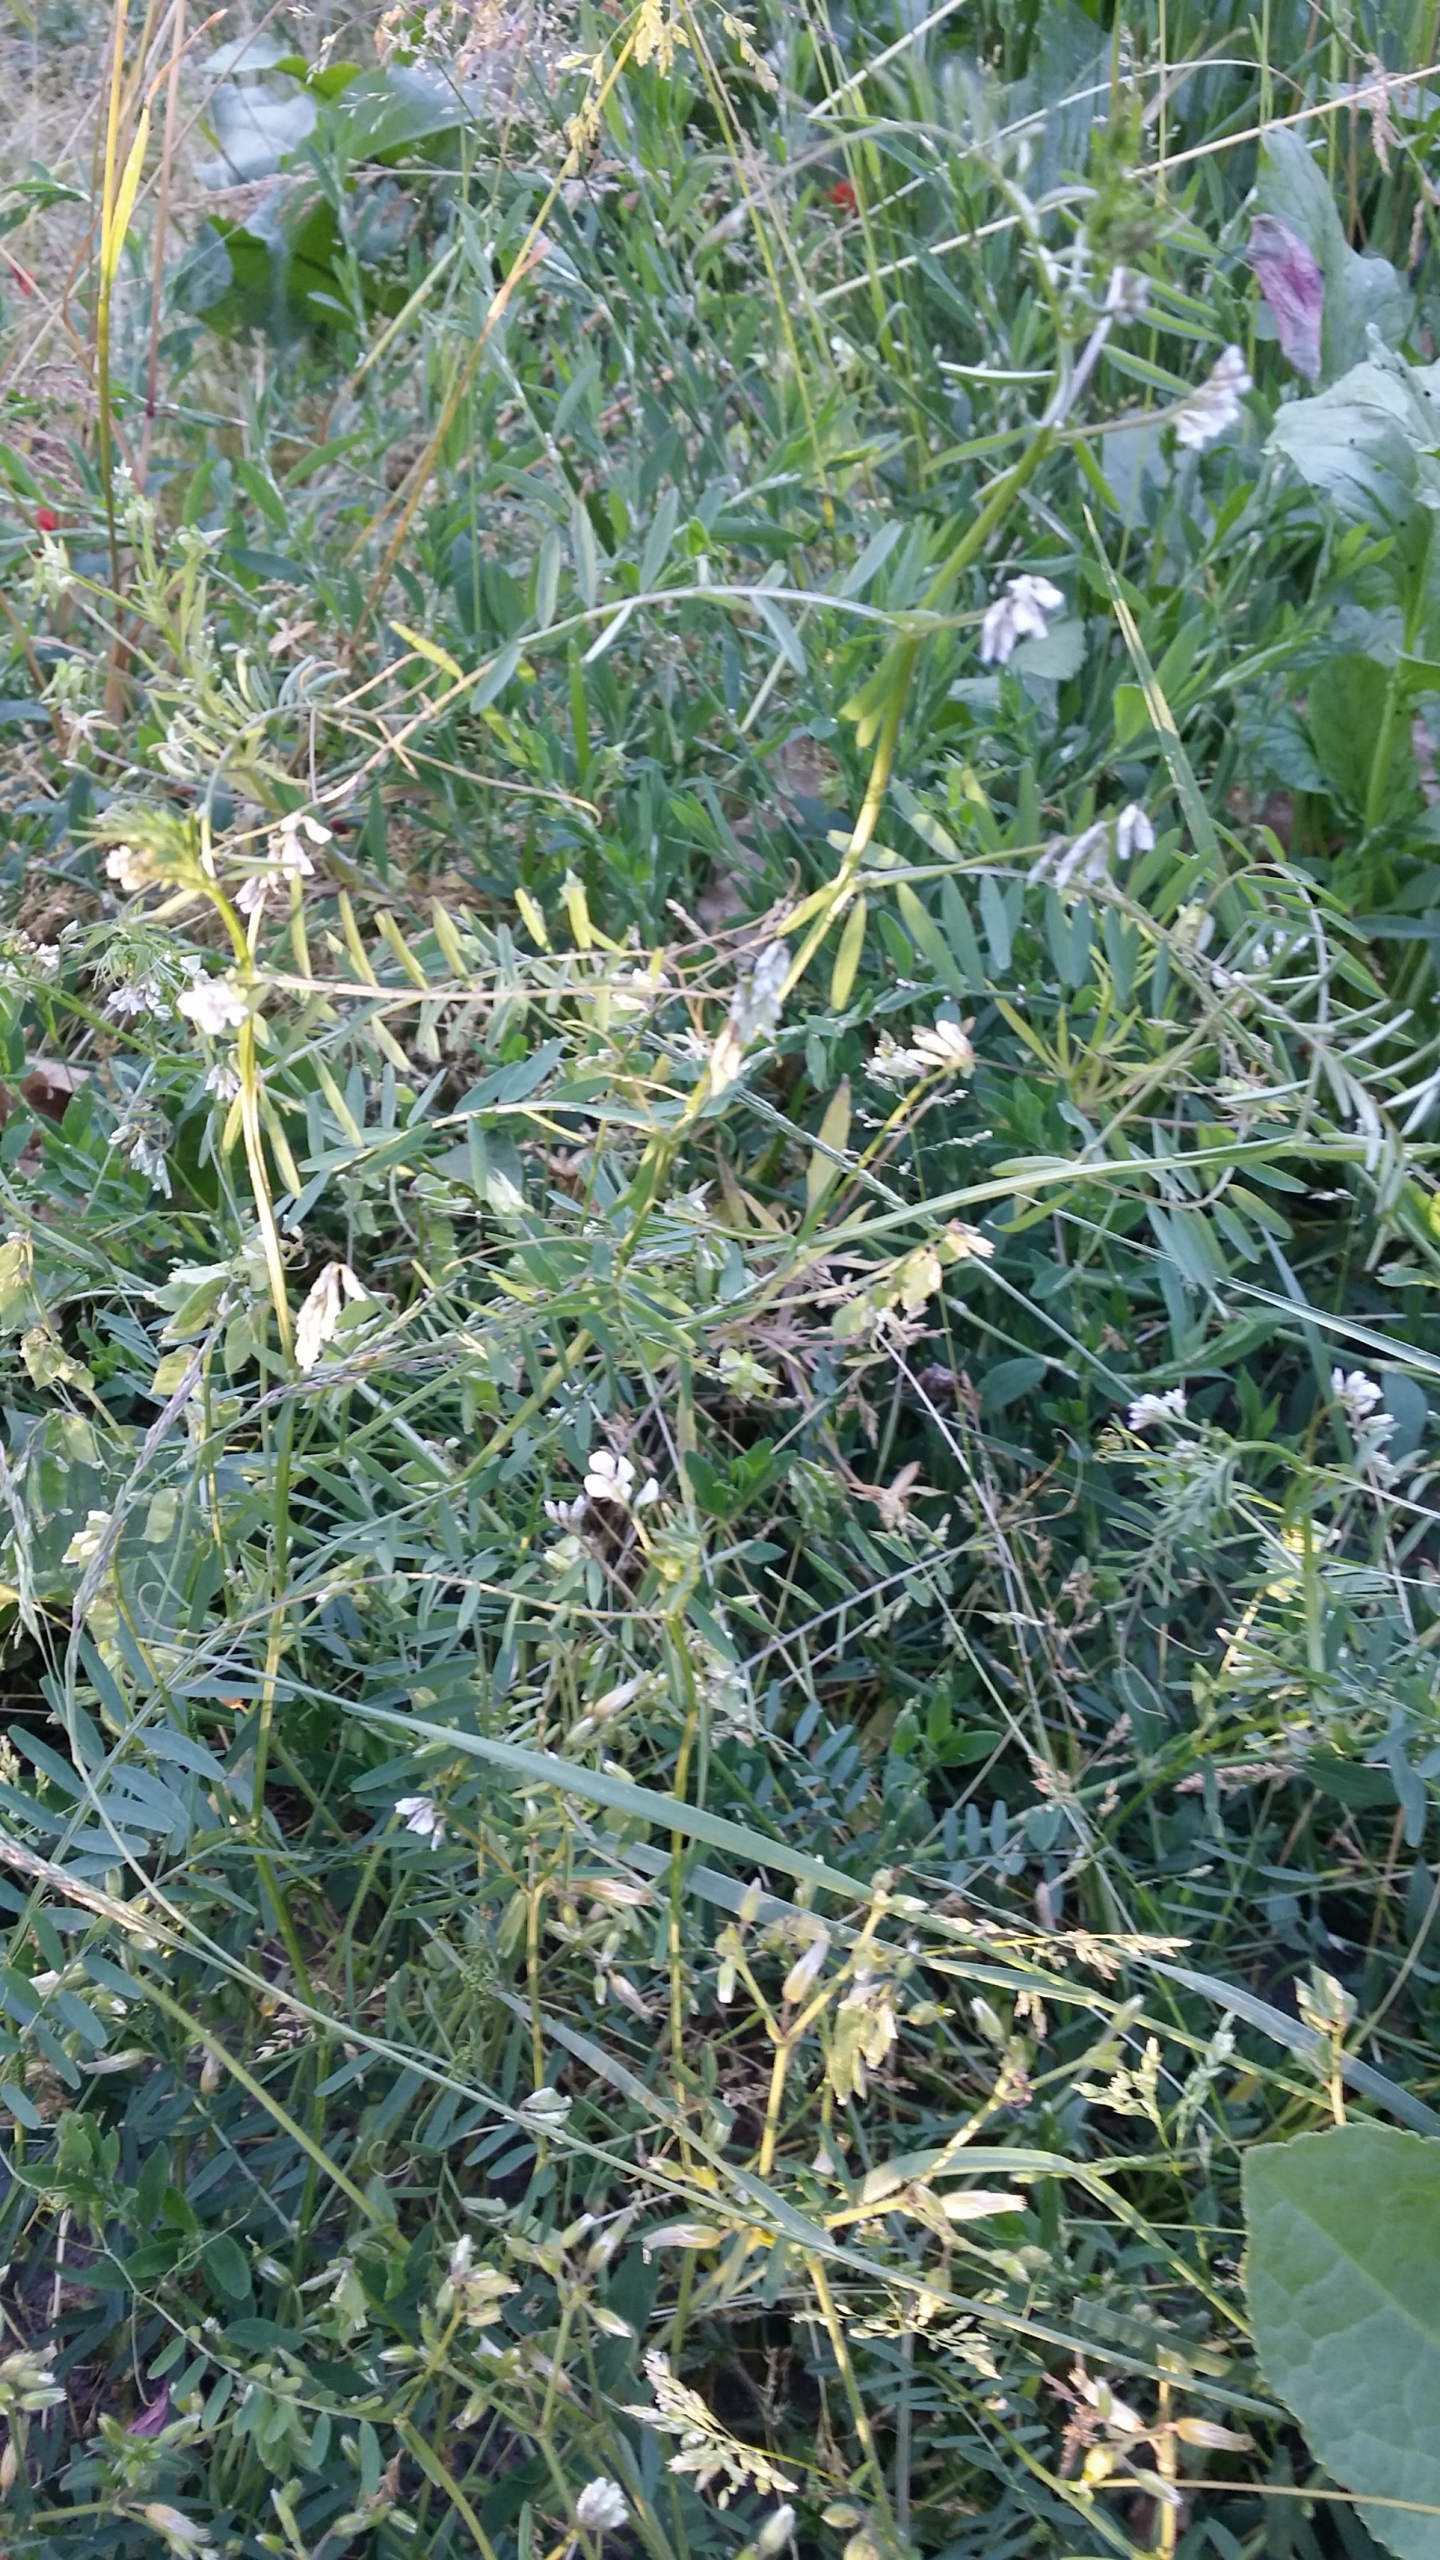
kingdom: Plantae
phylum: Tracheophyta
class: Magnoliopsida
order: Fabales
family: Fabaceae
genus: Vicia
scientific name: Vicia hirsuta
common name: Tofrøet vikke
